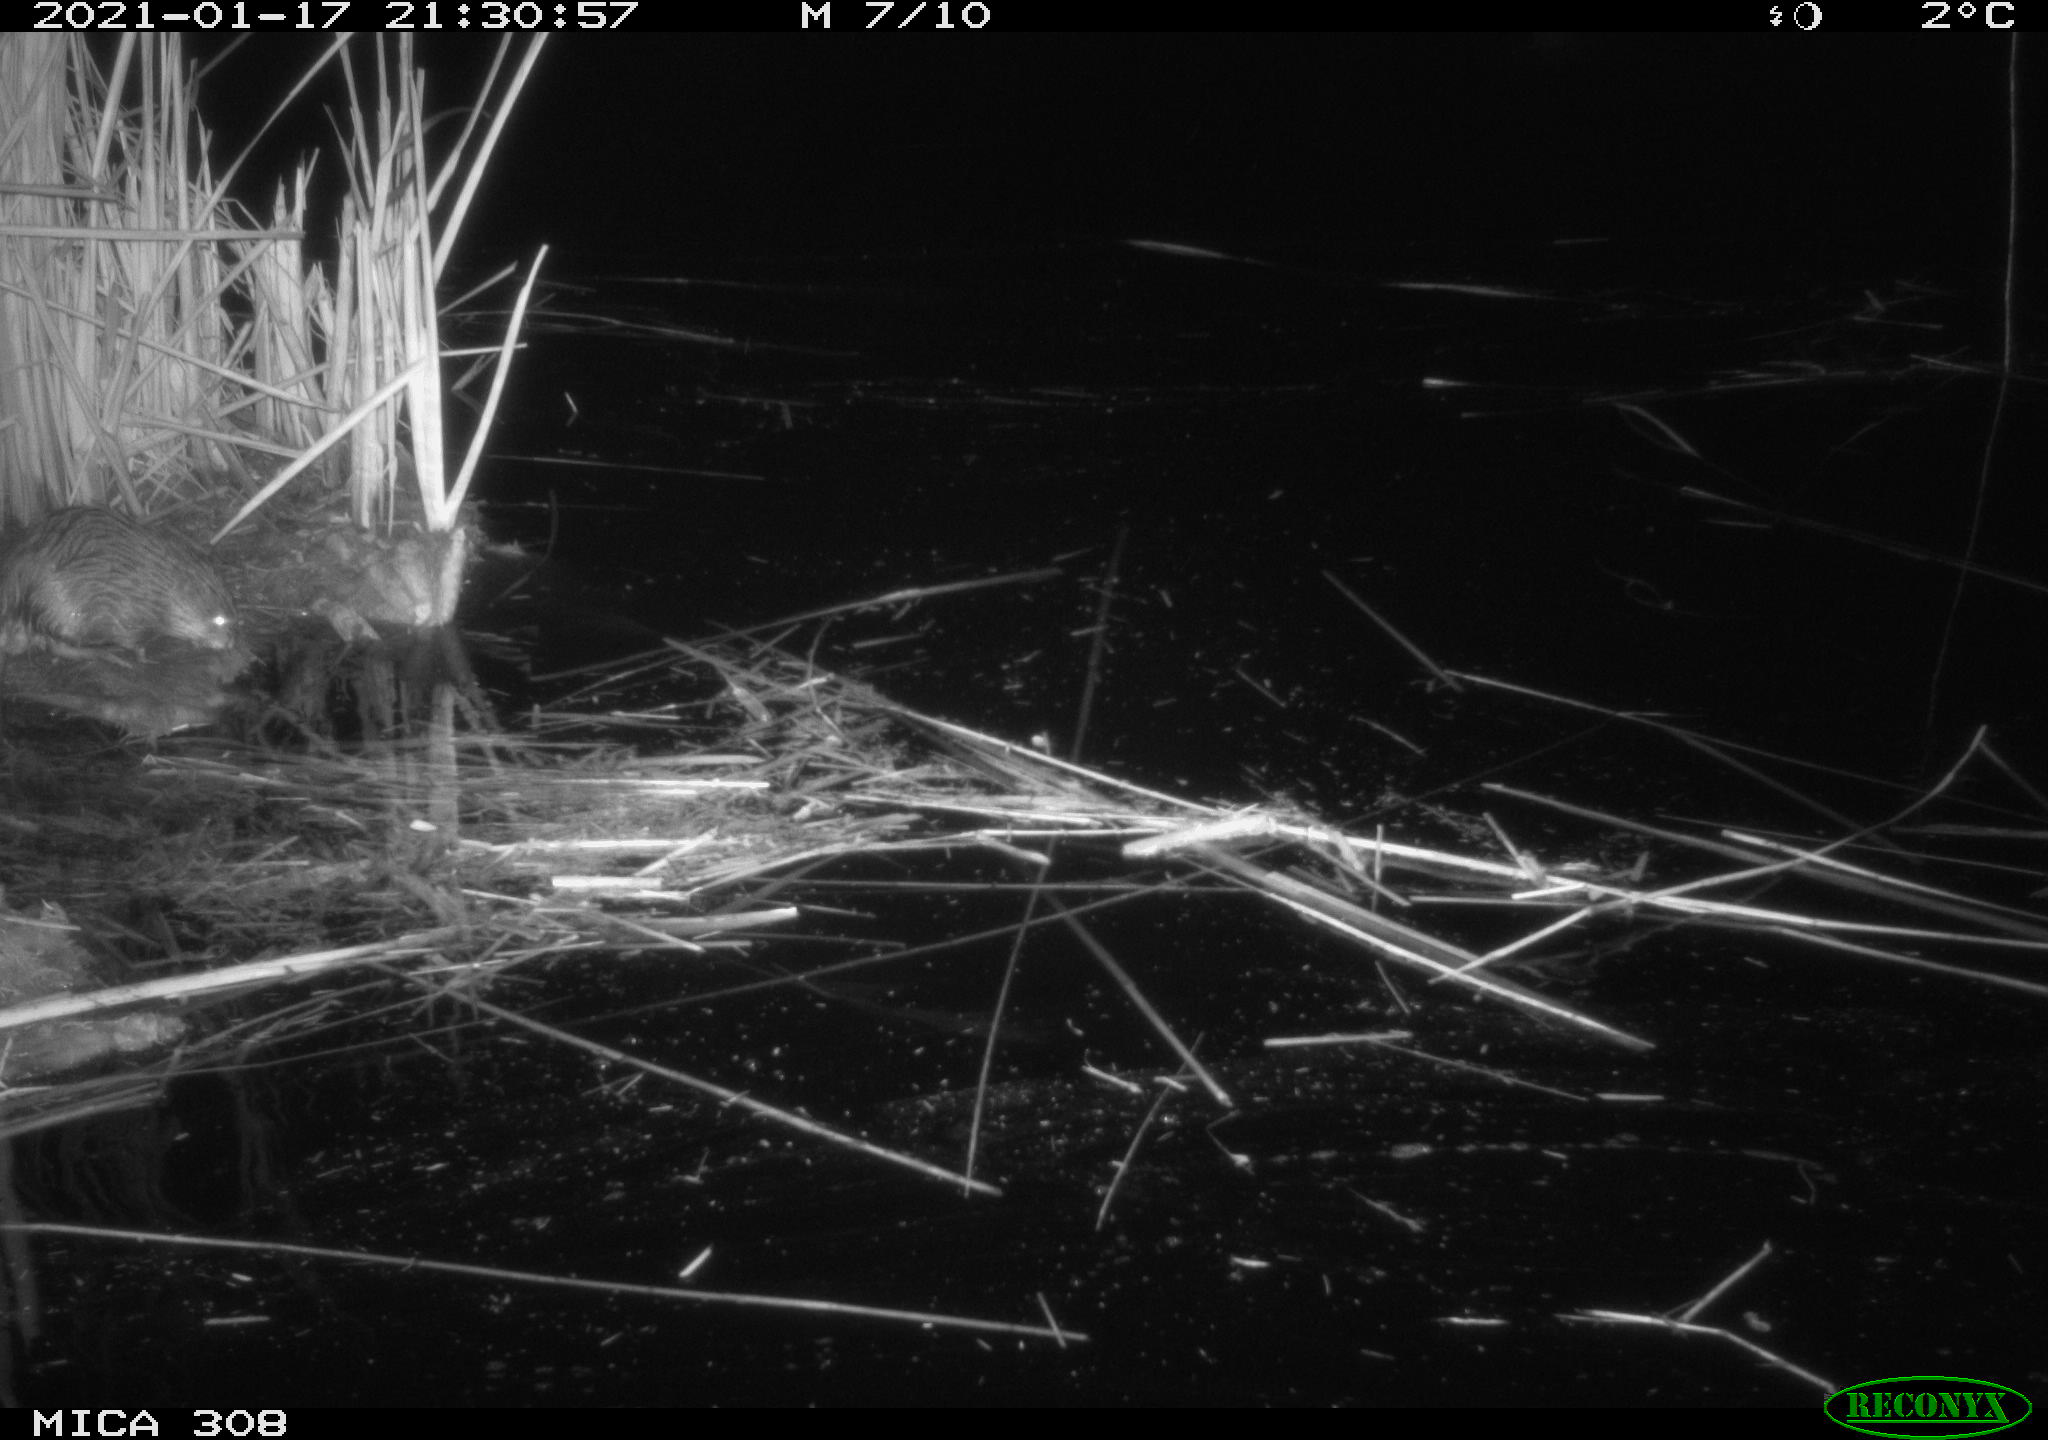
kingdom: Animalia
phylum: Chordata
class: Mammalia
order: Rodentia
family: Cricetidae
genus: Ondatra
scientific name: Ondatra zibethicus
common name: Muskrat
